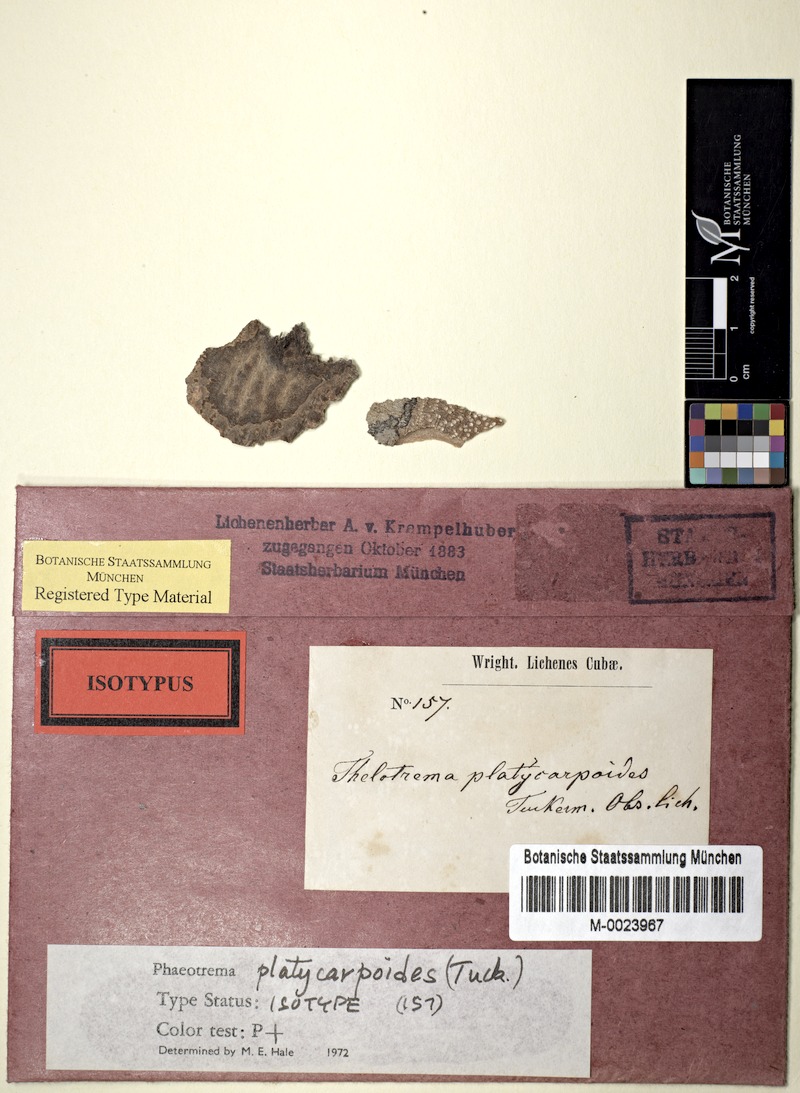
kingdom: Fungi
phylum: Ascomycota
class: Lecanoromycetes
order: Ostropales
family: Graphidaceae
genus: Asteristion
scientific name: Asteristion platycarpoides
